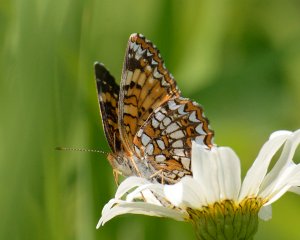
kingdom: Animalia
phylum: Arthropoda
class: Insecta
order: Lepidoptera
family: Nymphalidae
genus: Chlosyne
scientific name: Chlosyne harrisii
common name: Harris's Checkerspot
